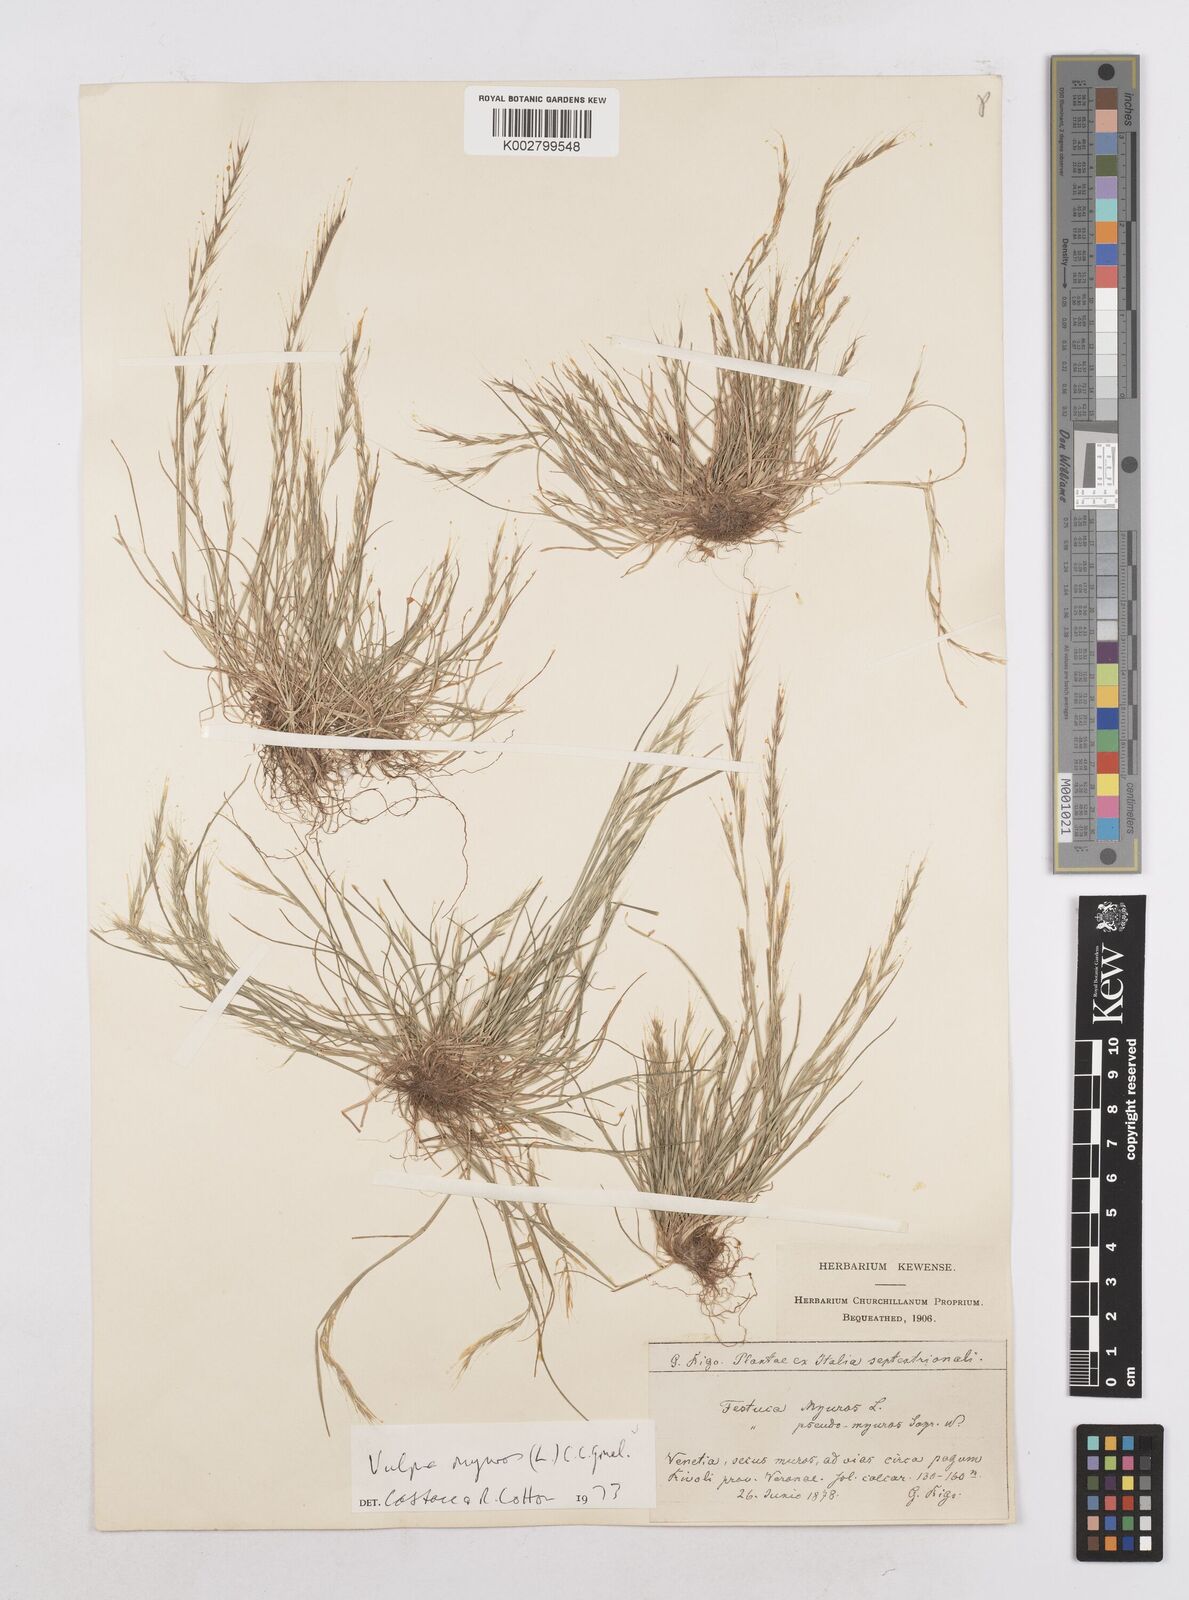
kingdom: Plantae
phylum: Tracheophyta
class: Liliopsida
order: Poales
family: Poaceae
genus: Festuca
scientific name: Festuca myuros
